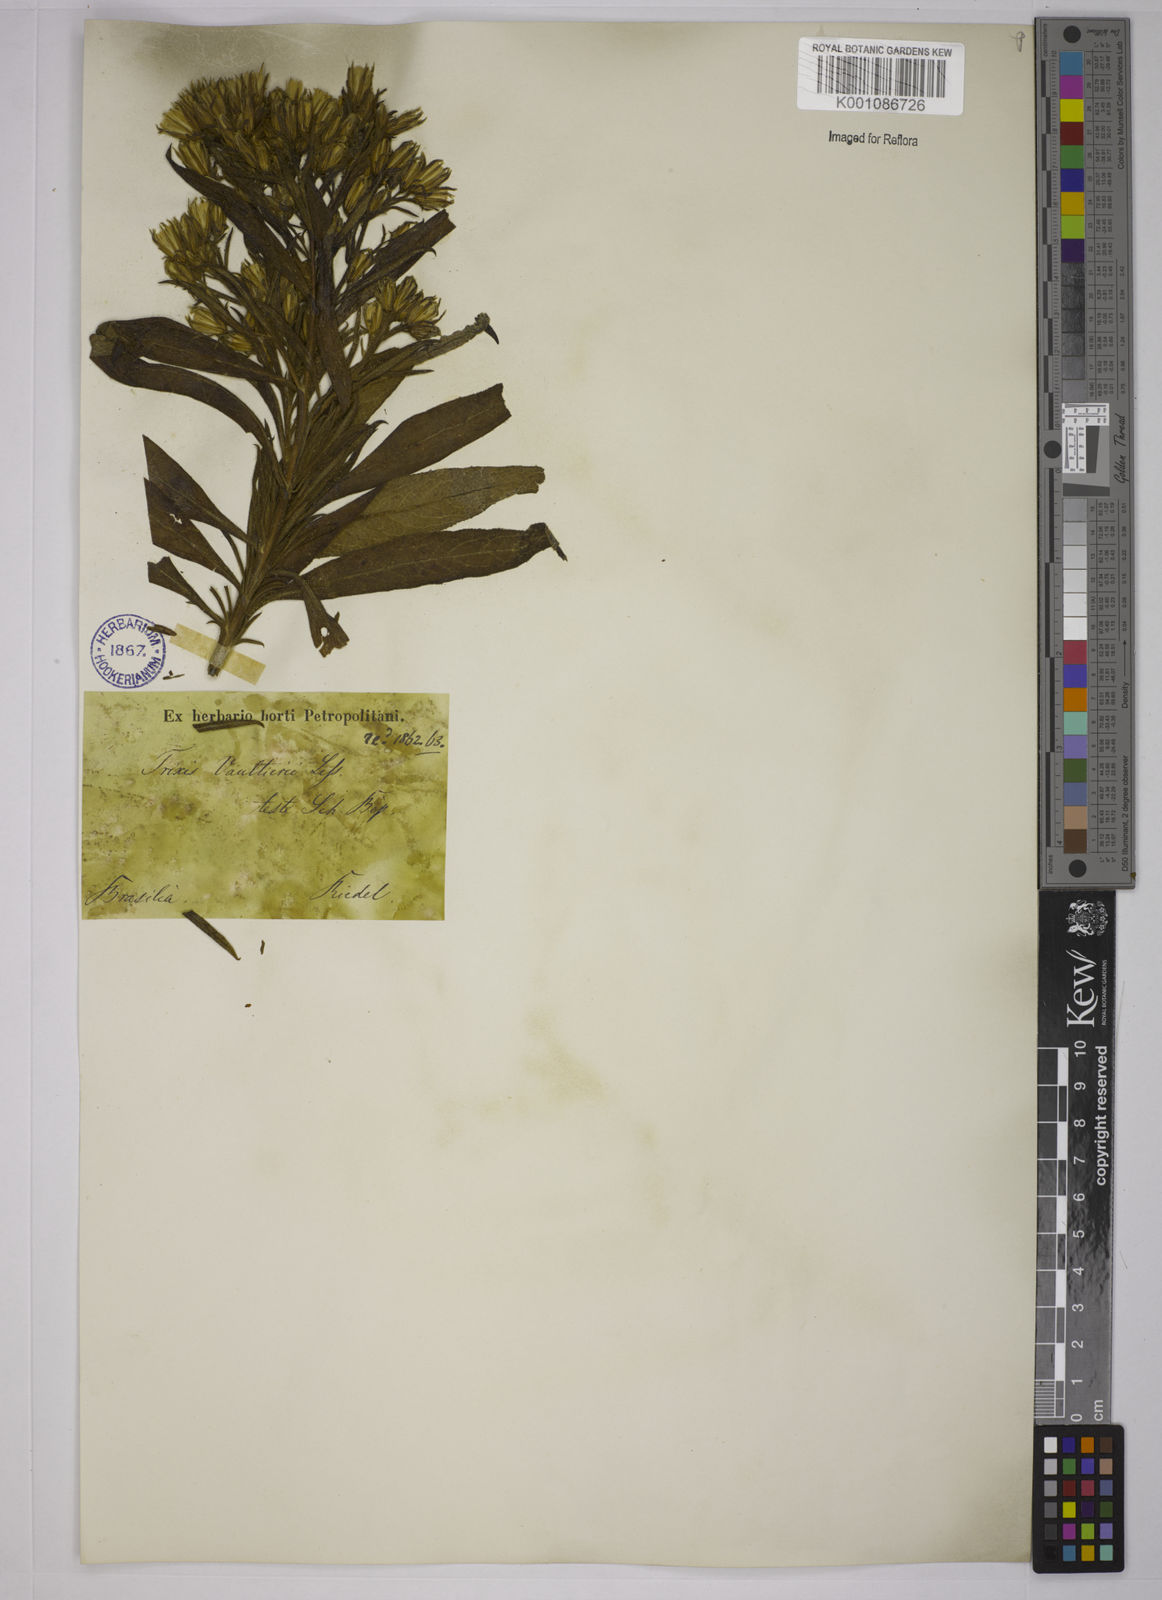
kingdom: Plantae
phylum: Tracheophyta
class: Magnoliopsida
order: Asterales
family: Asteraceae
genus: Trixis
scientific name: Trixis vauthieri
